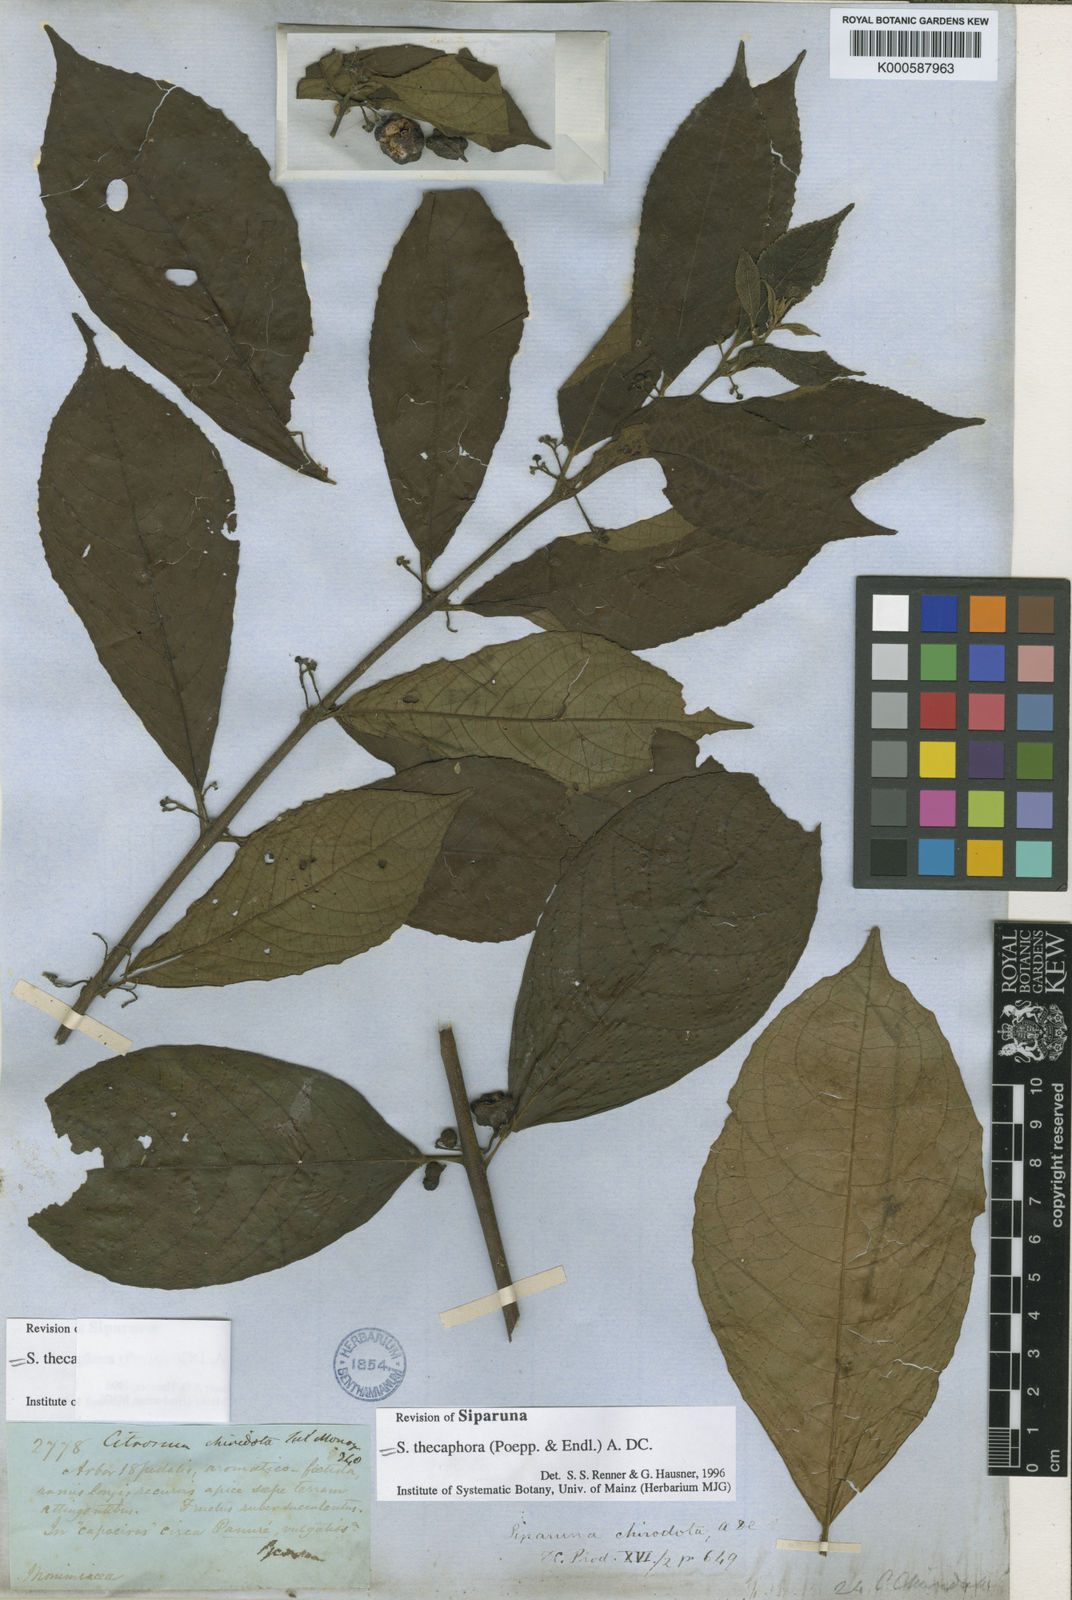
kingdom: Plantae
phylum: Tracheophyta
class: Magnoliopsida
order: Laurales
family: Siparunaceae
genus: Siparuna
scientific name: Siparuna thecaphora
